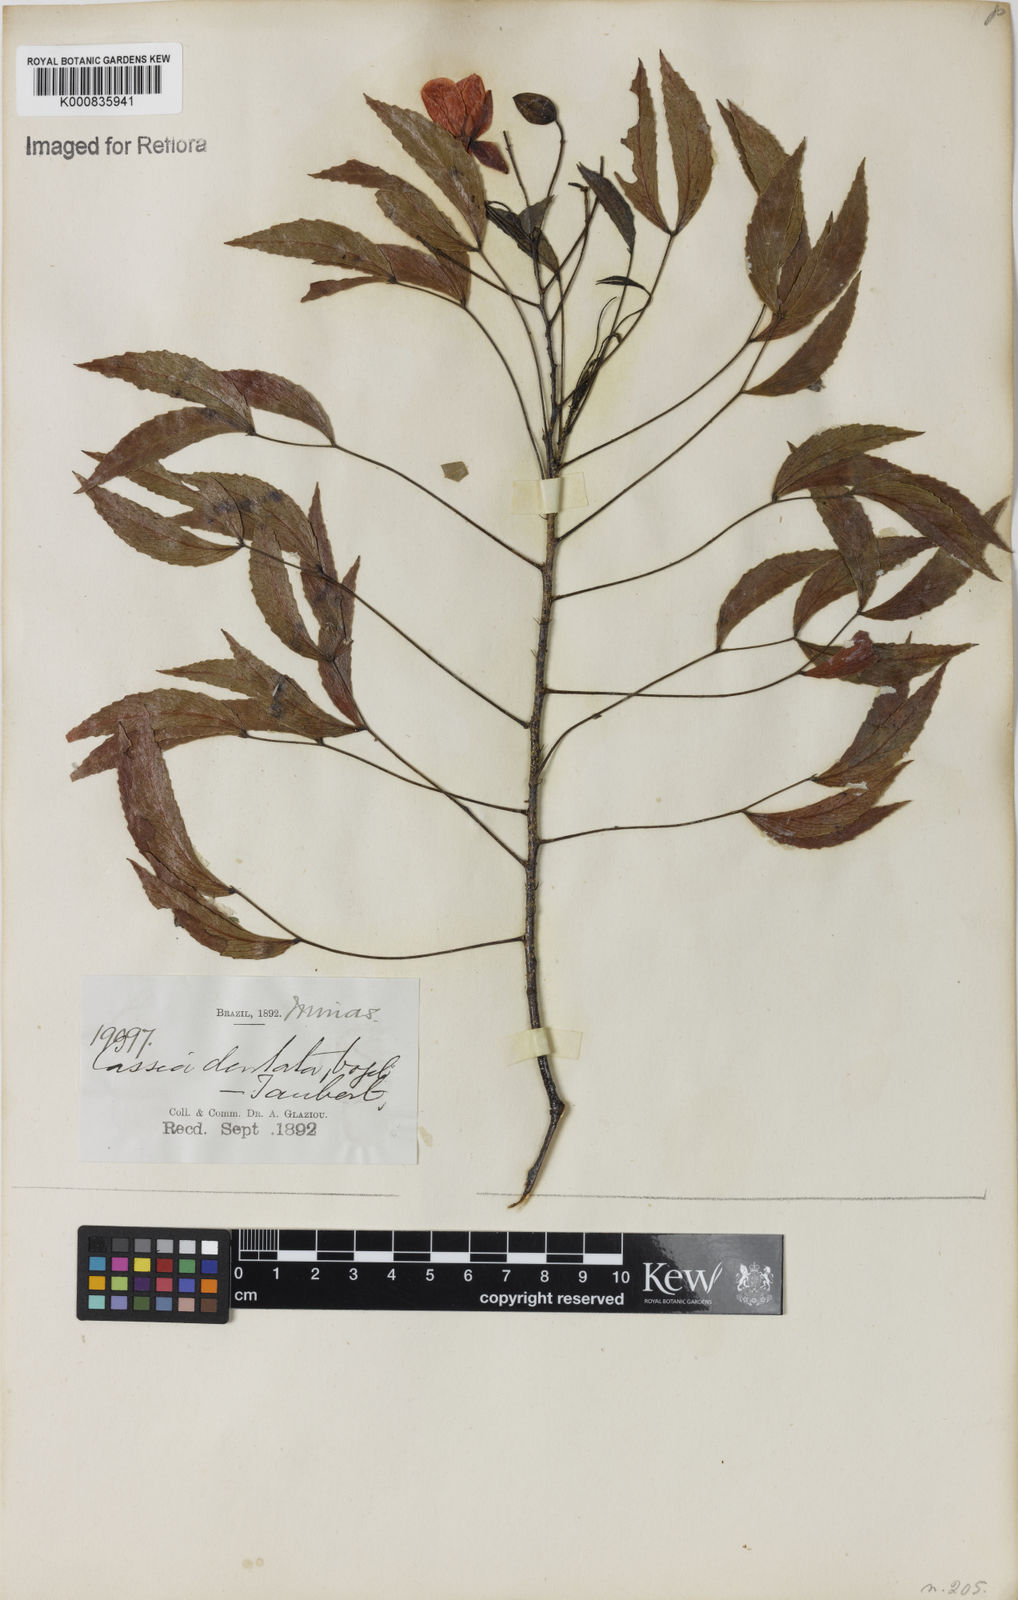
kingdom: Plantae
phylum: Tracheophyta
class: Magnoliopsida
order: Fabales
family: Fabaceae
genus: Chamaecrista
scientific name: Chamaecrista dentata
